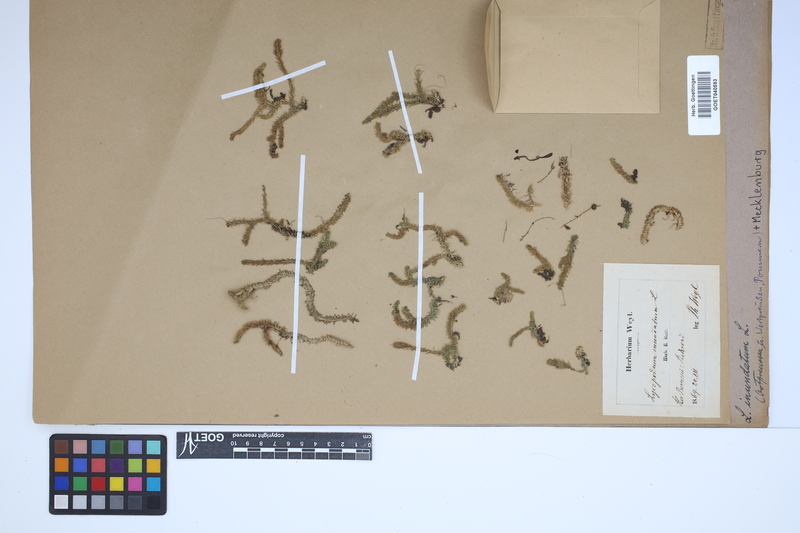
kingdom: Plantae
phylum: Tracheophyta
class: Lycopodiopsida
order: Lycopodiales
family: Lycopodiaceae
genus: Lycopodiella
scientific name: Lycopodiella inundata
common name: Marsh clubmoss
